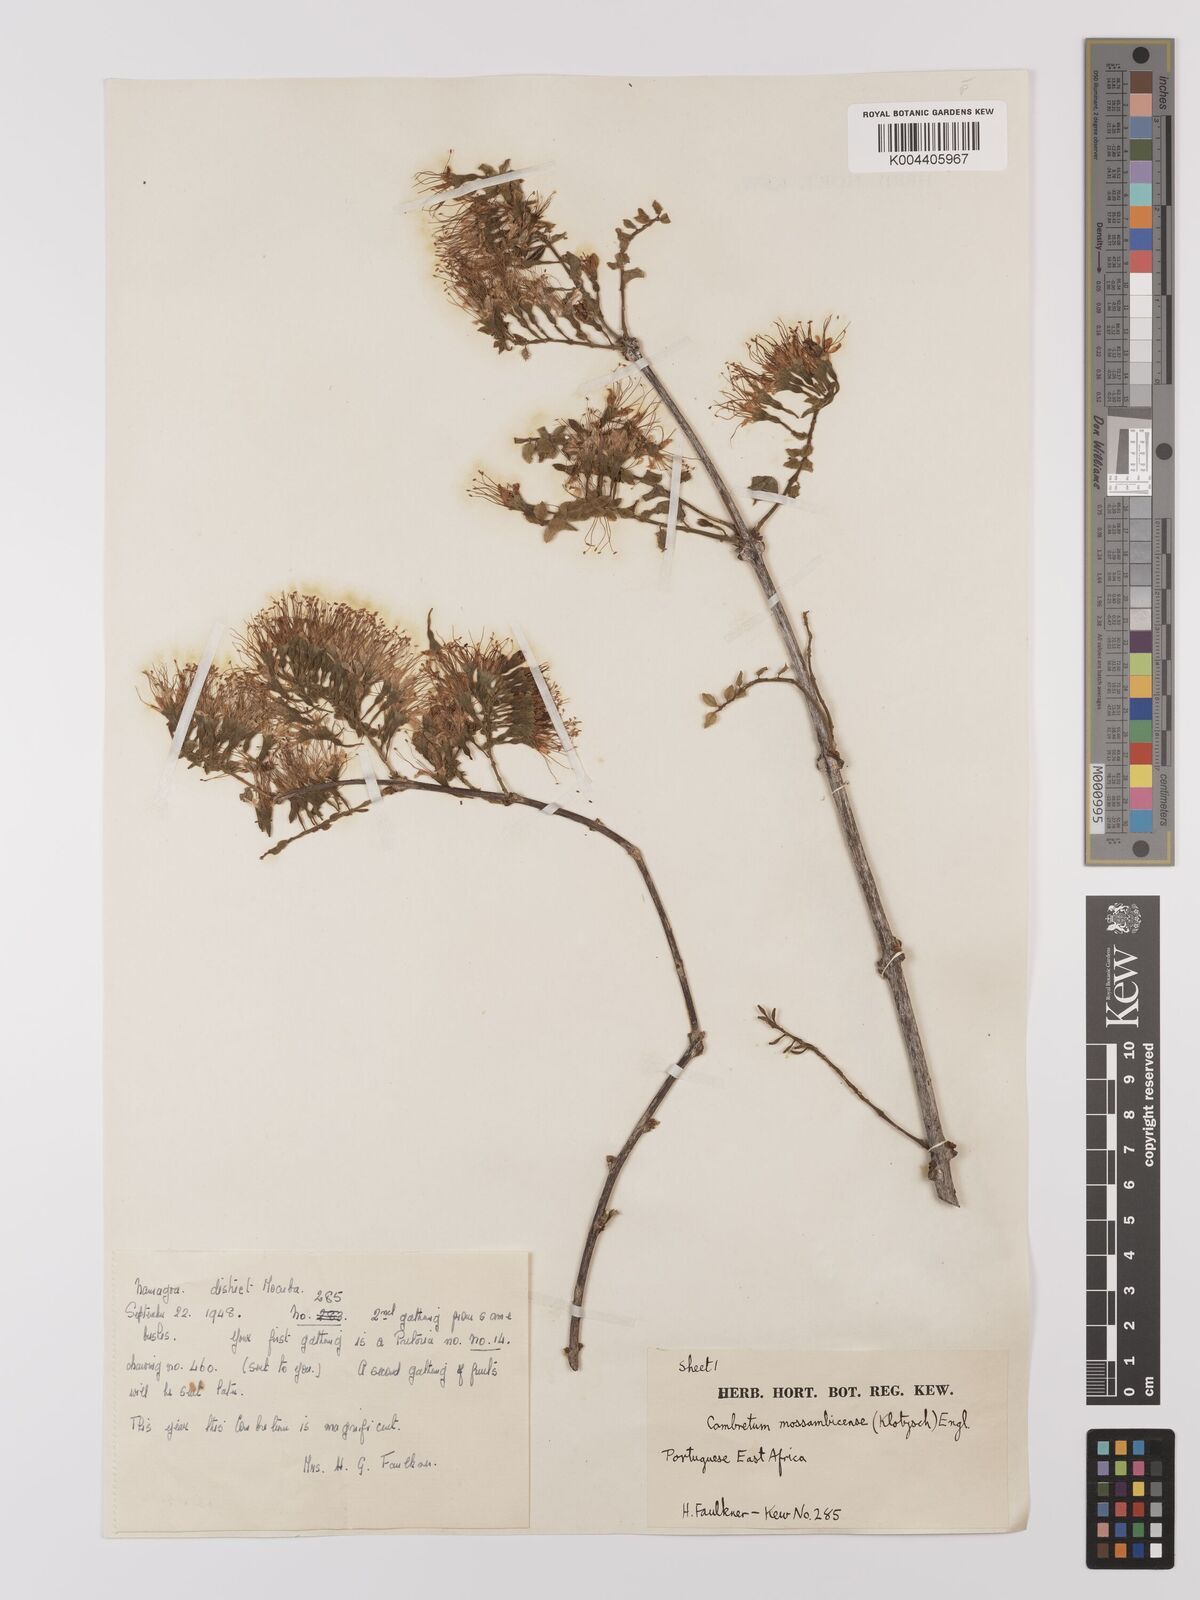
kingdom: Plantae
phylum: Tracheophyta
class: Magnoliopsida
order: Myrtales
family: Combretaceae
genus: Combretum
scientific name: Combretum mossambicense
